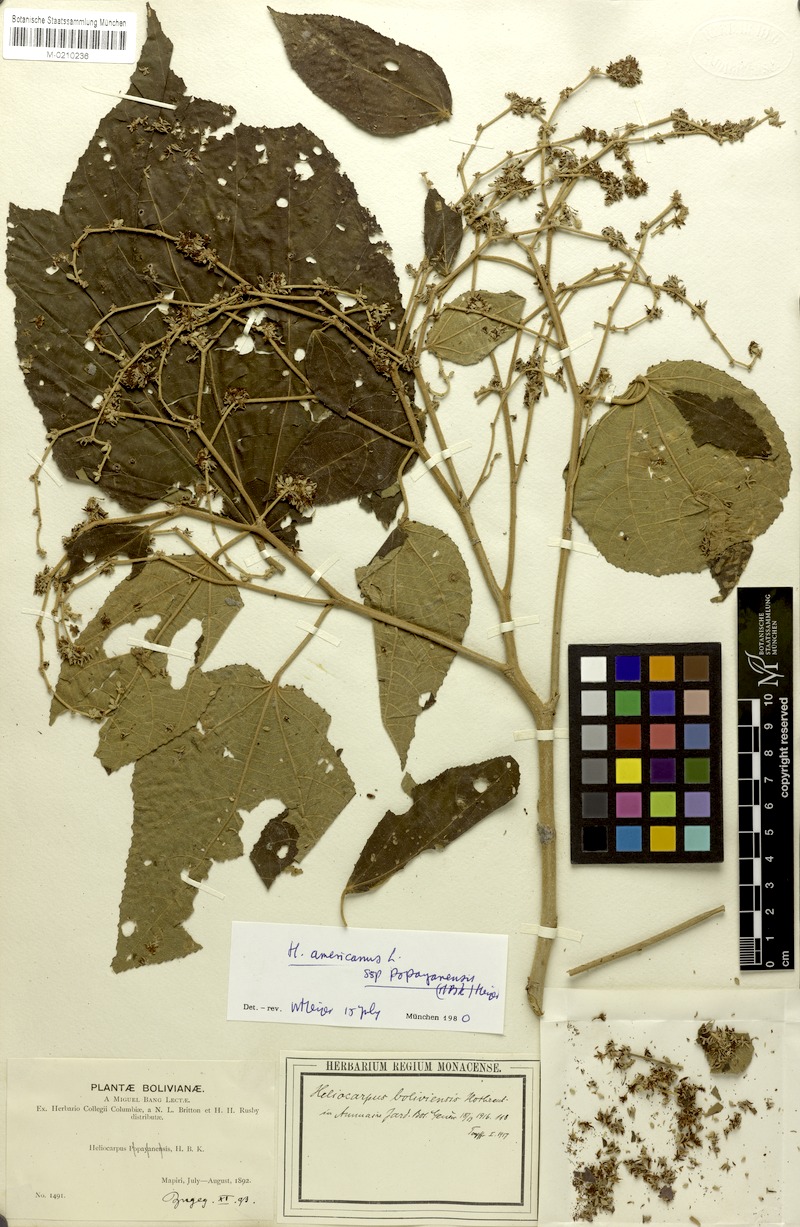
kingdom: Plantae
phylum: Tracheophyta
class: Magnoliopsida
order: Malvales
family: Malvaceae
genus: Heliocarpus
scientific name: Heliocarpus americanus
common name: White moho
